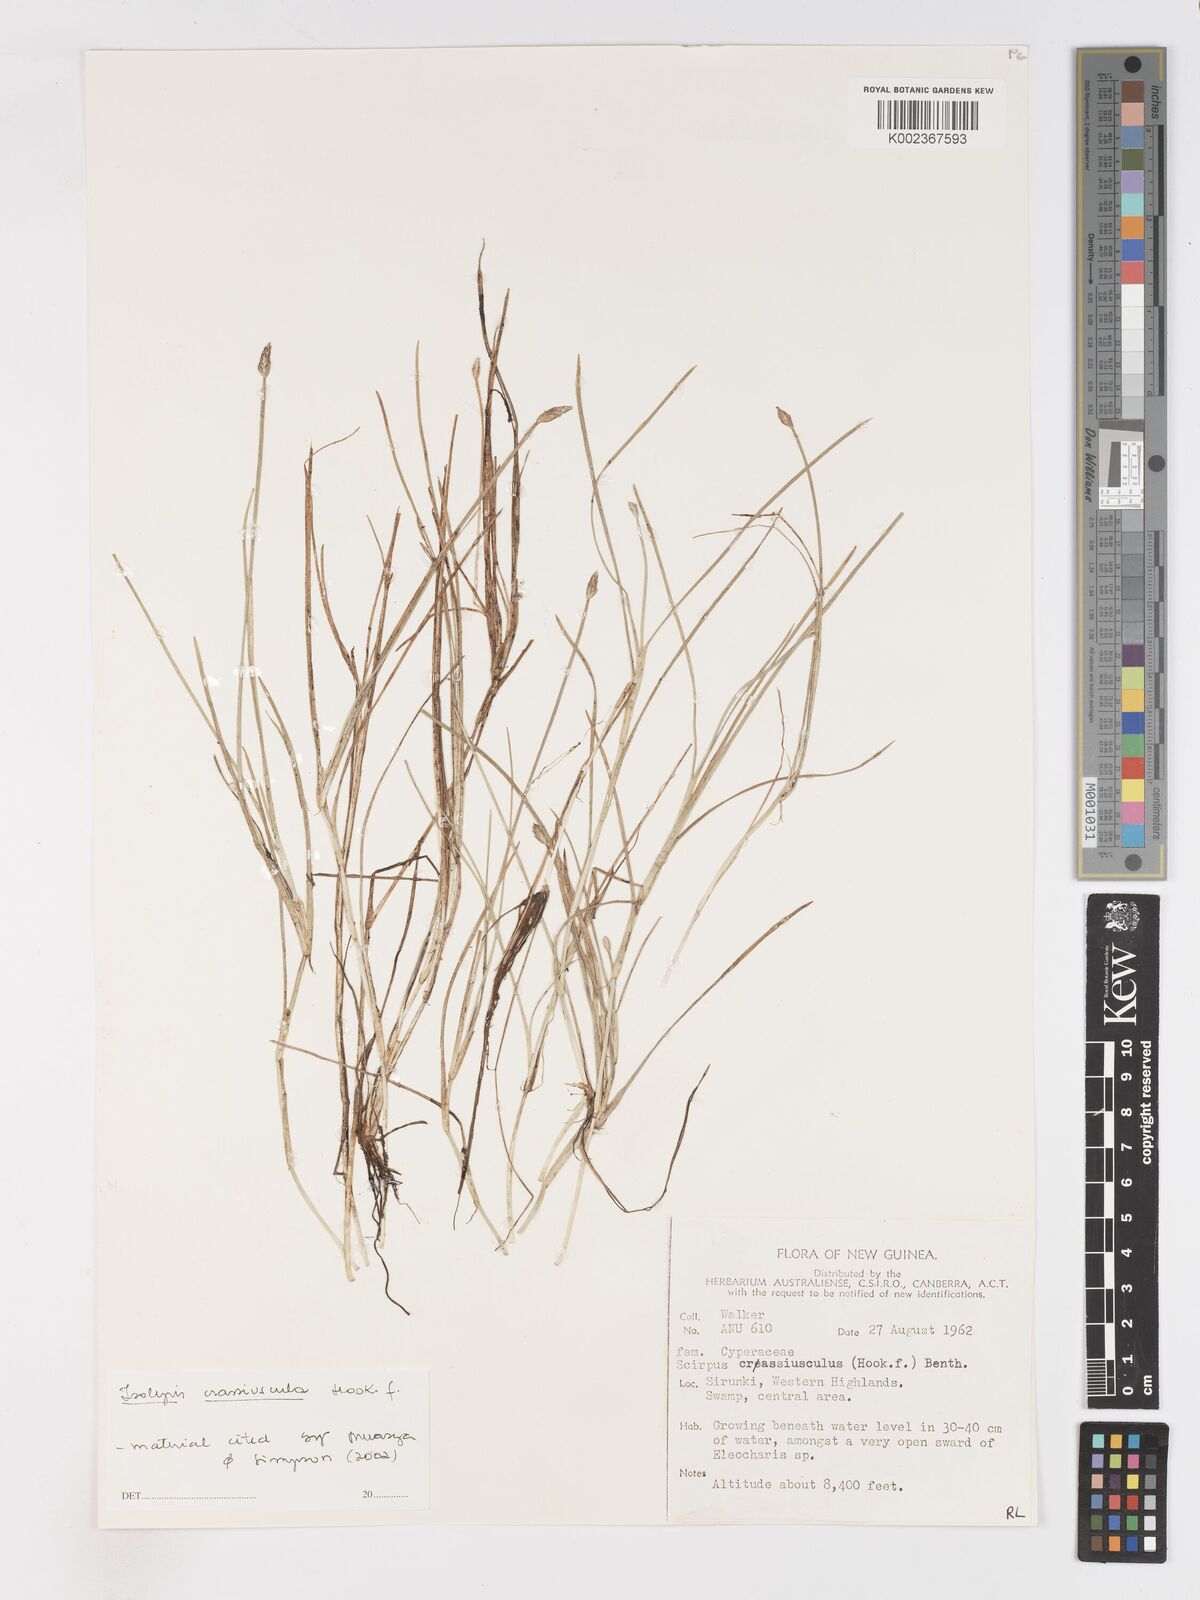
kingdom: Plantae
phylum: Tracheophyta
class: Liliopsida
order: Poales
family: Cyperaceae
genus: Isolepis
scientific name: Isolepis crassiuscula
